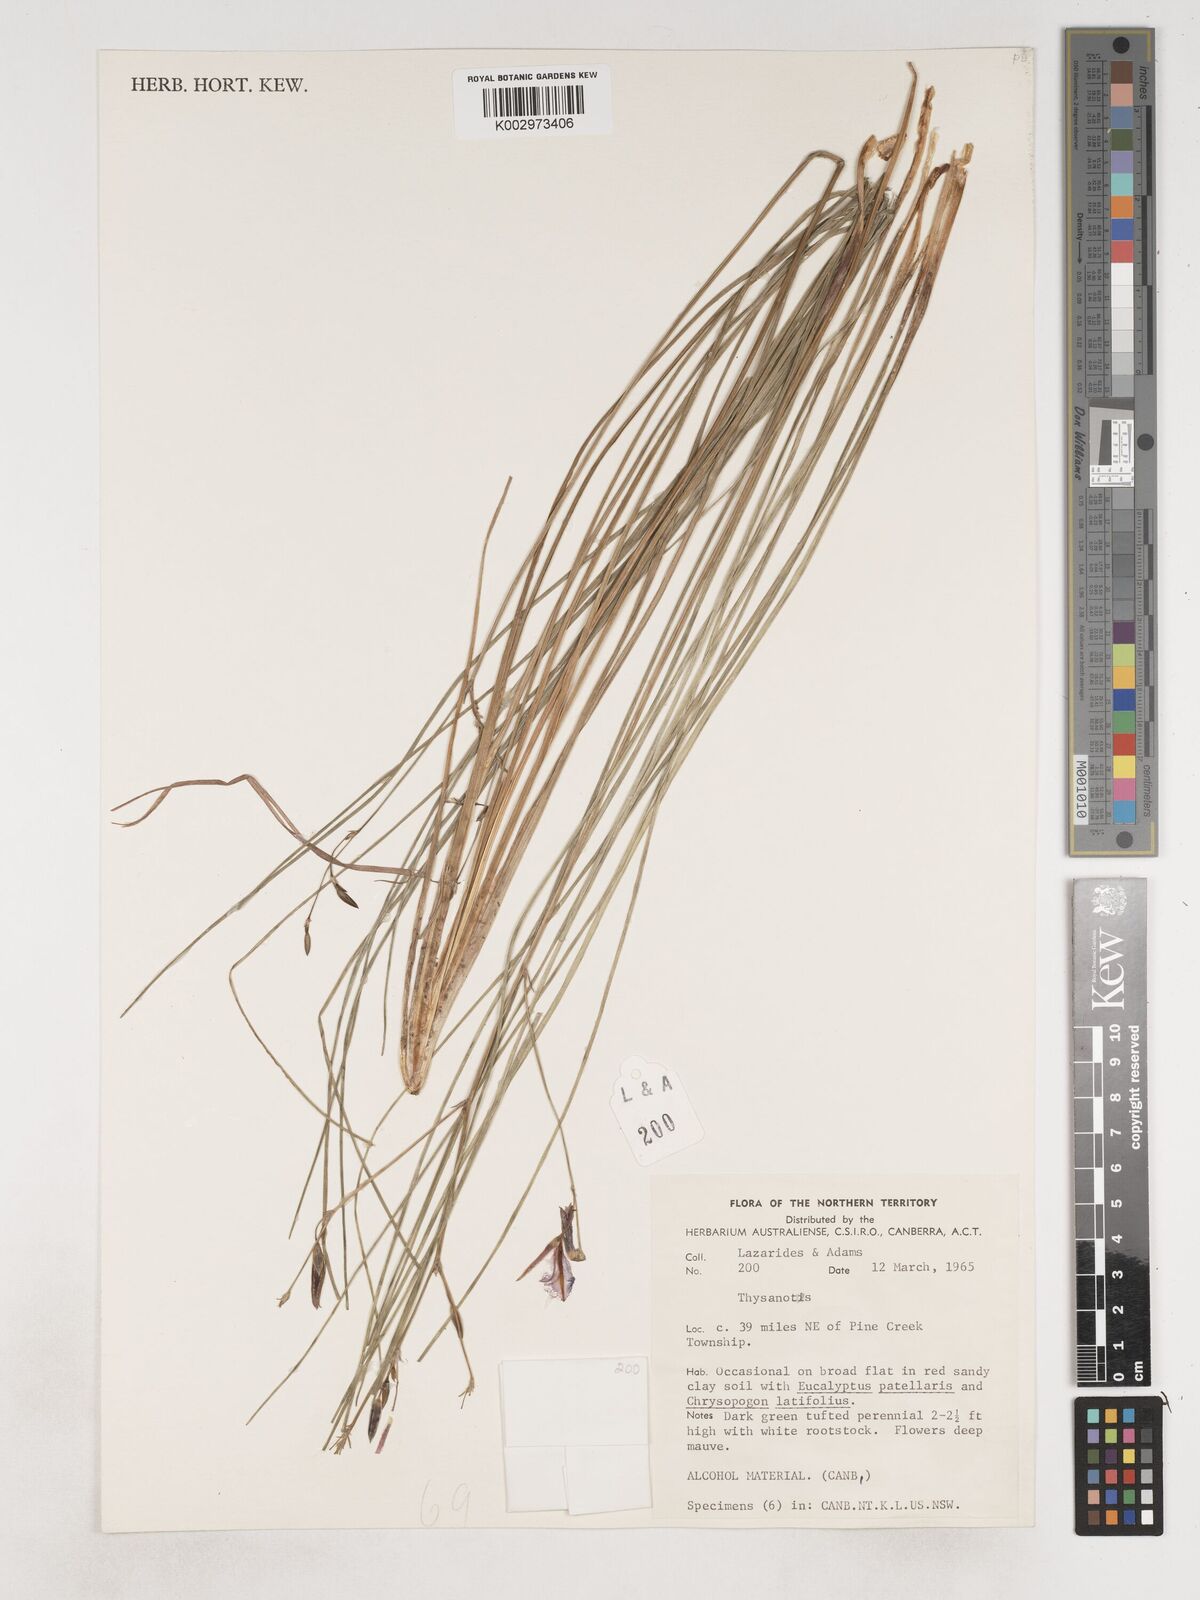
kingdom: Plantae
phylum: Tracheophyta
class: Liliopsida
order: Asparagales
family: Asparagaceae
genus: Thysanotus
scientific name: Thysanotus
